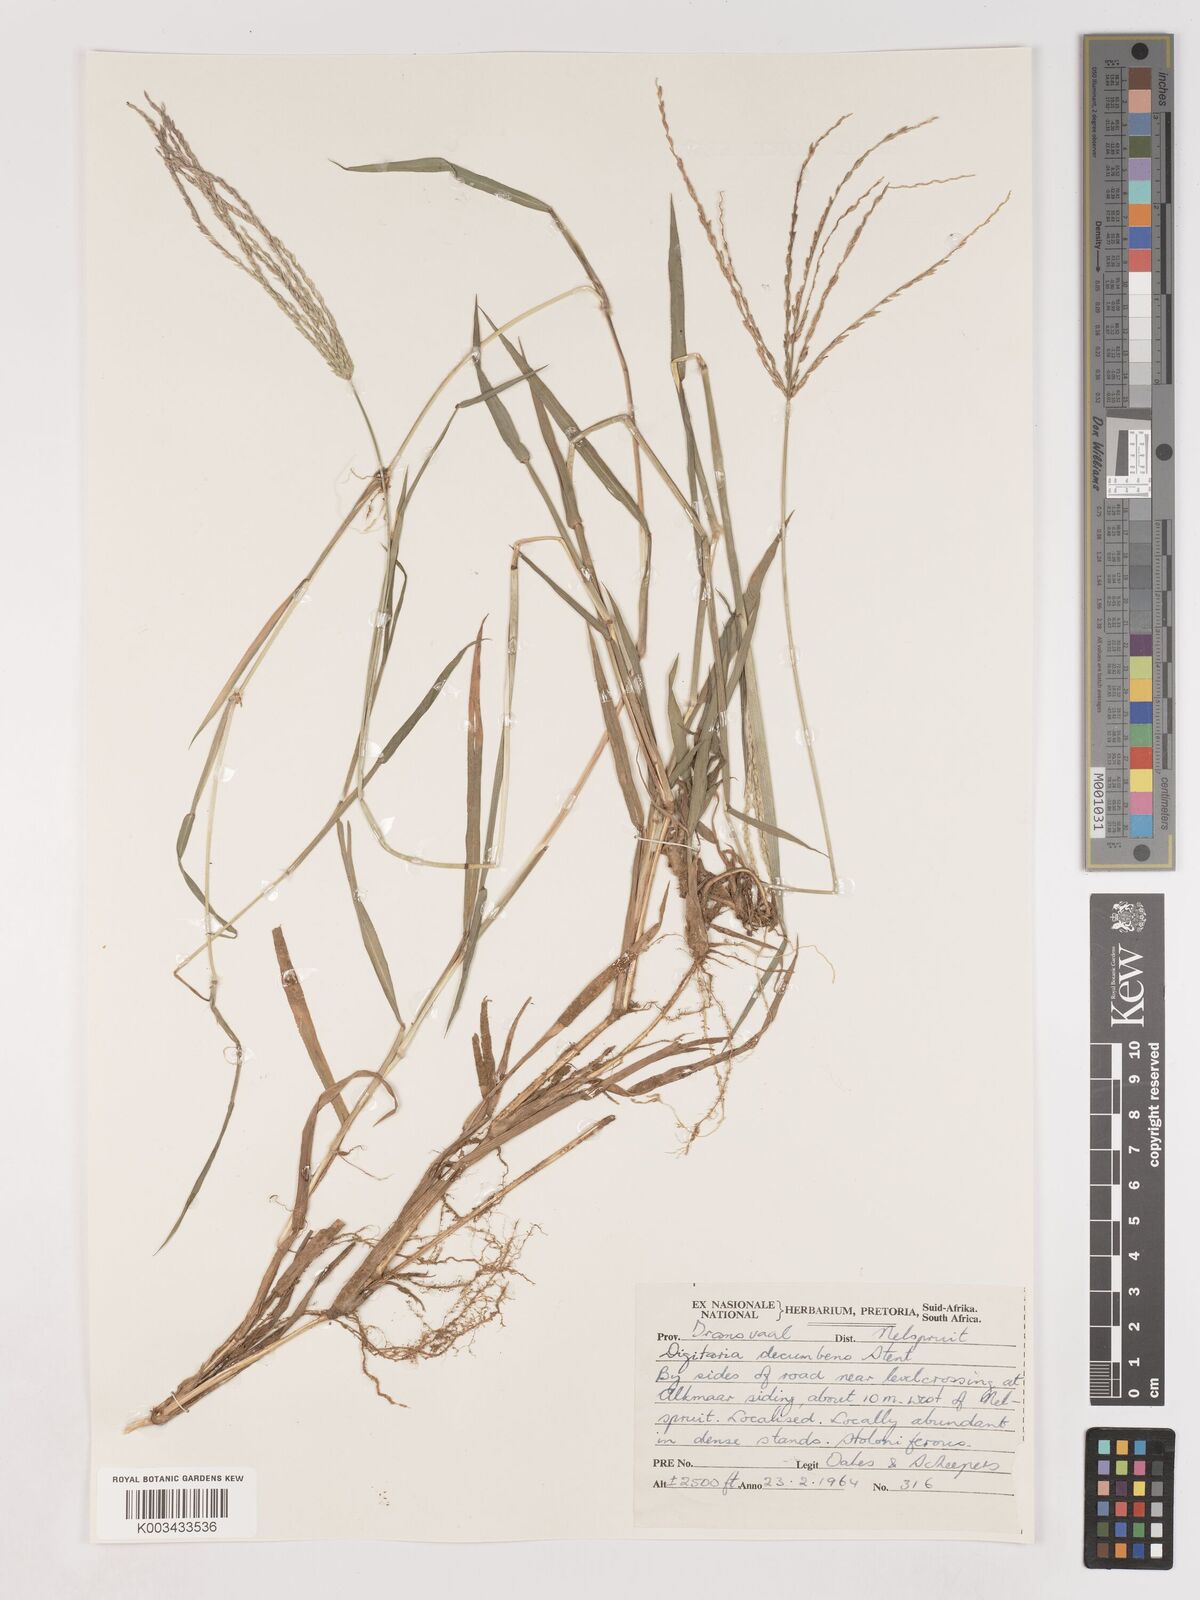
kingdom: Plantae
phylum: Tracheophyta
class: Liliopsida
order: Poales
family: Poaceae
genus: Digitaria
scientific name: Digitaria eriantha
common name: Digitgrass
